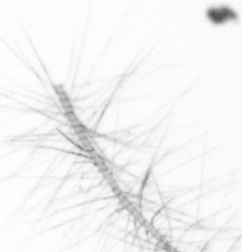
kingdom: Chromista
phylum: Ochrophyta
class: Bacillariophyceae
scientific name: Bacillariophyceae
